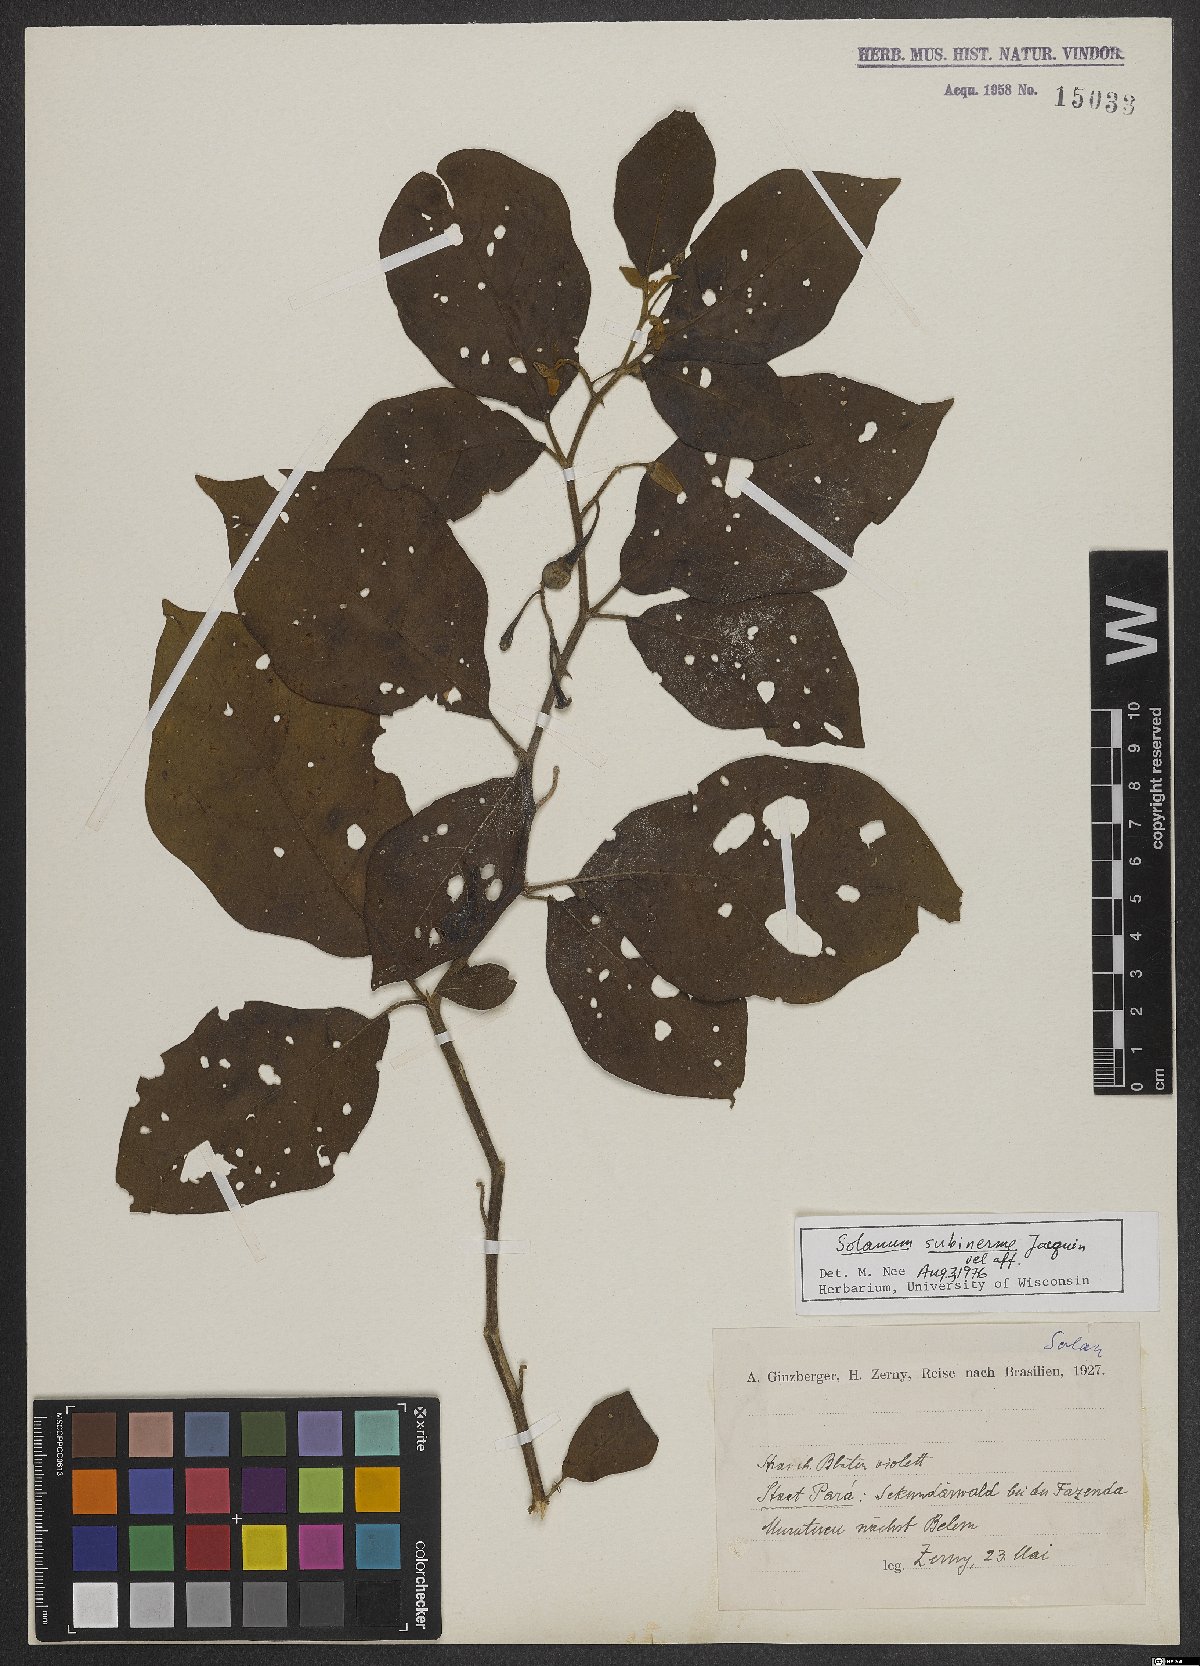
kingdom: Plantae
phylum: Tracheophyta
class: Magnoliopsida
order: Solanales
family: Solanaceae
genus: Solanum
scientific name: Solanum subinerme
